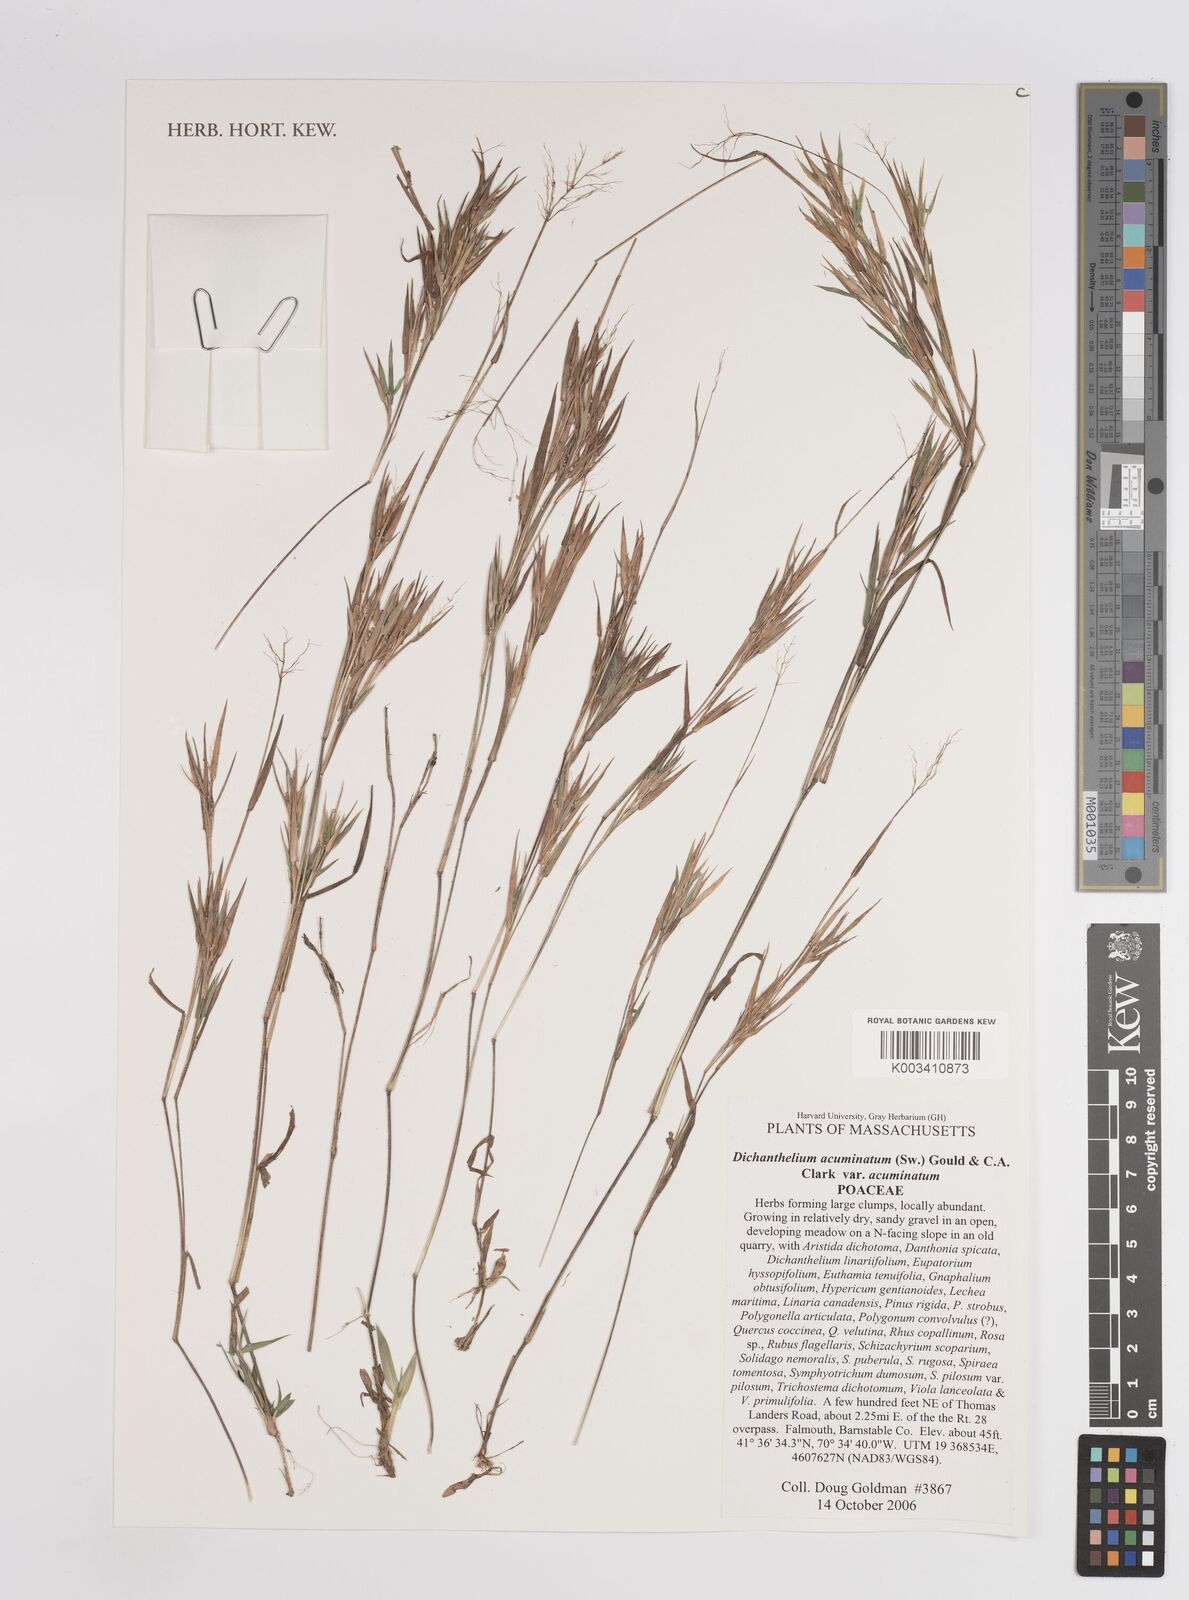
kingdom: Plantae
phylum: Tracheophyta
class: Liliopsida
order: Poales
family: Poaceae
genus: Dichanthelium
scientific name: Dichanthelium villosissimum
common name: White-haired panicgrass
